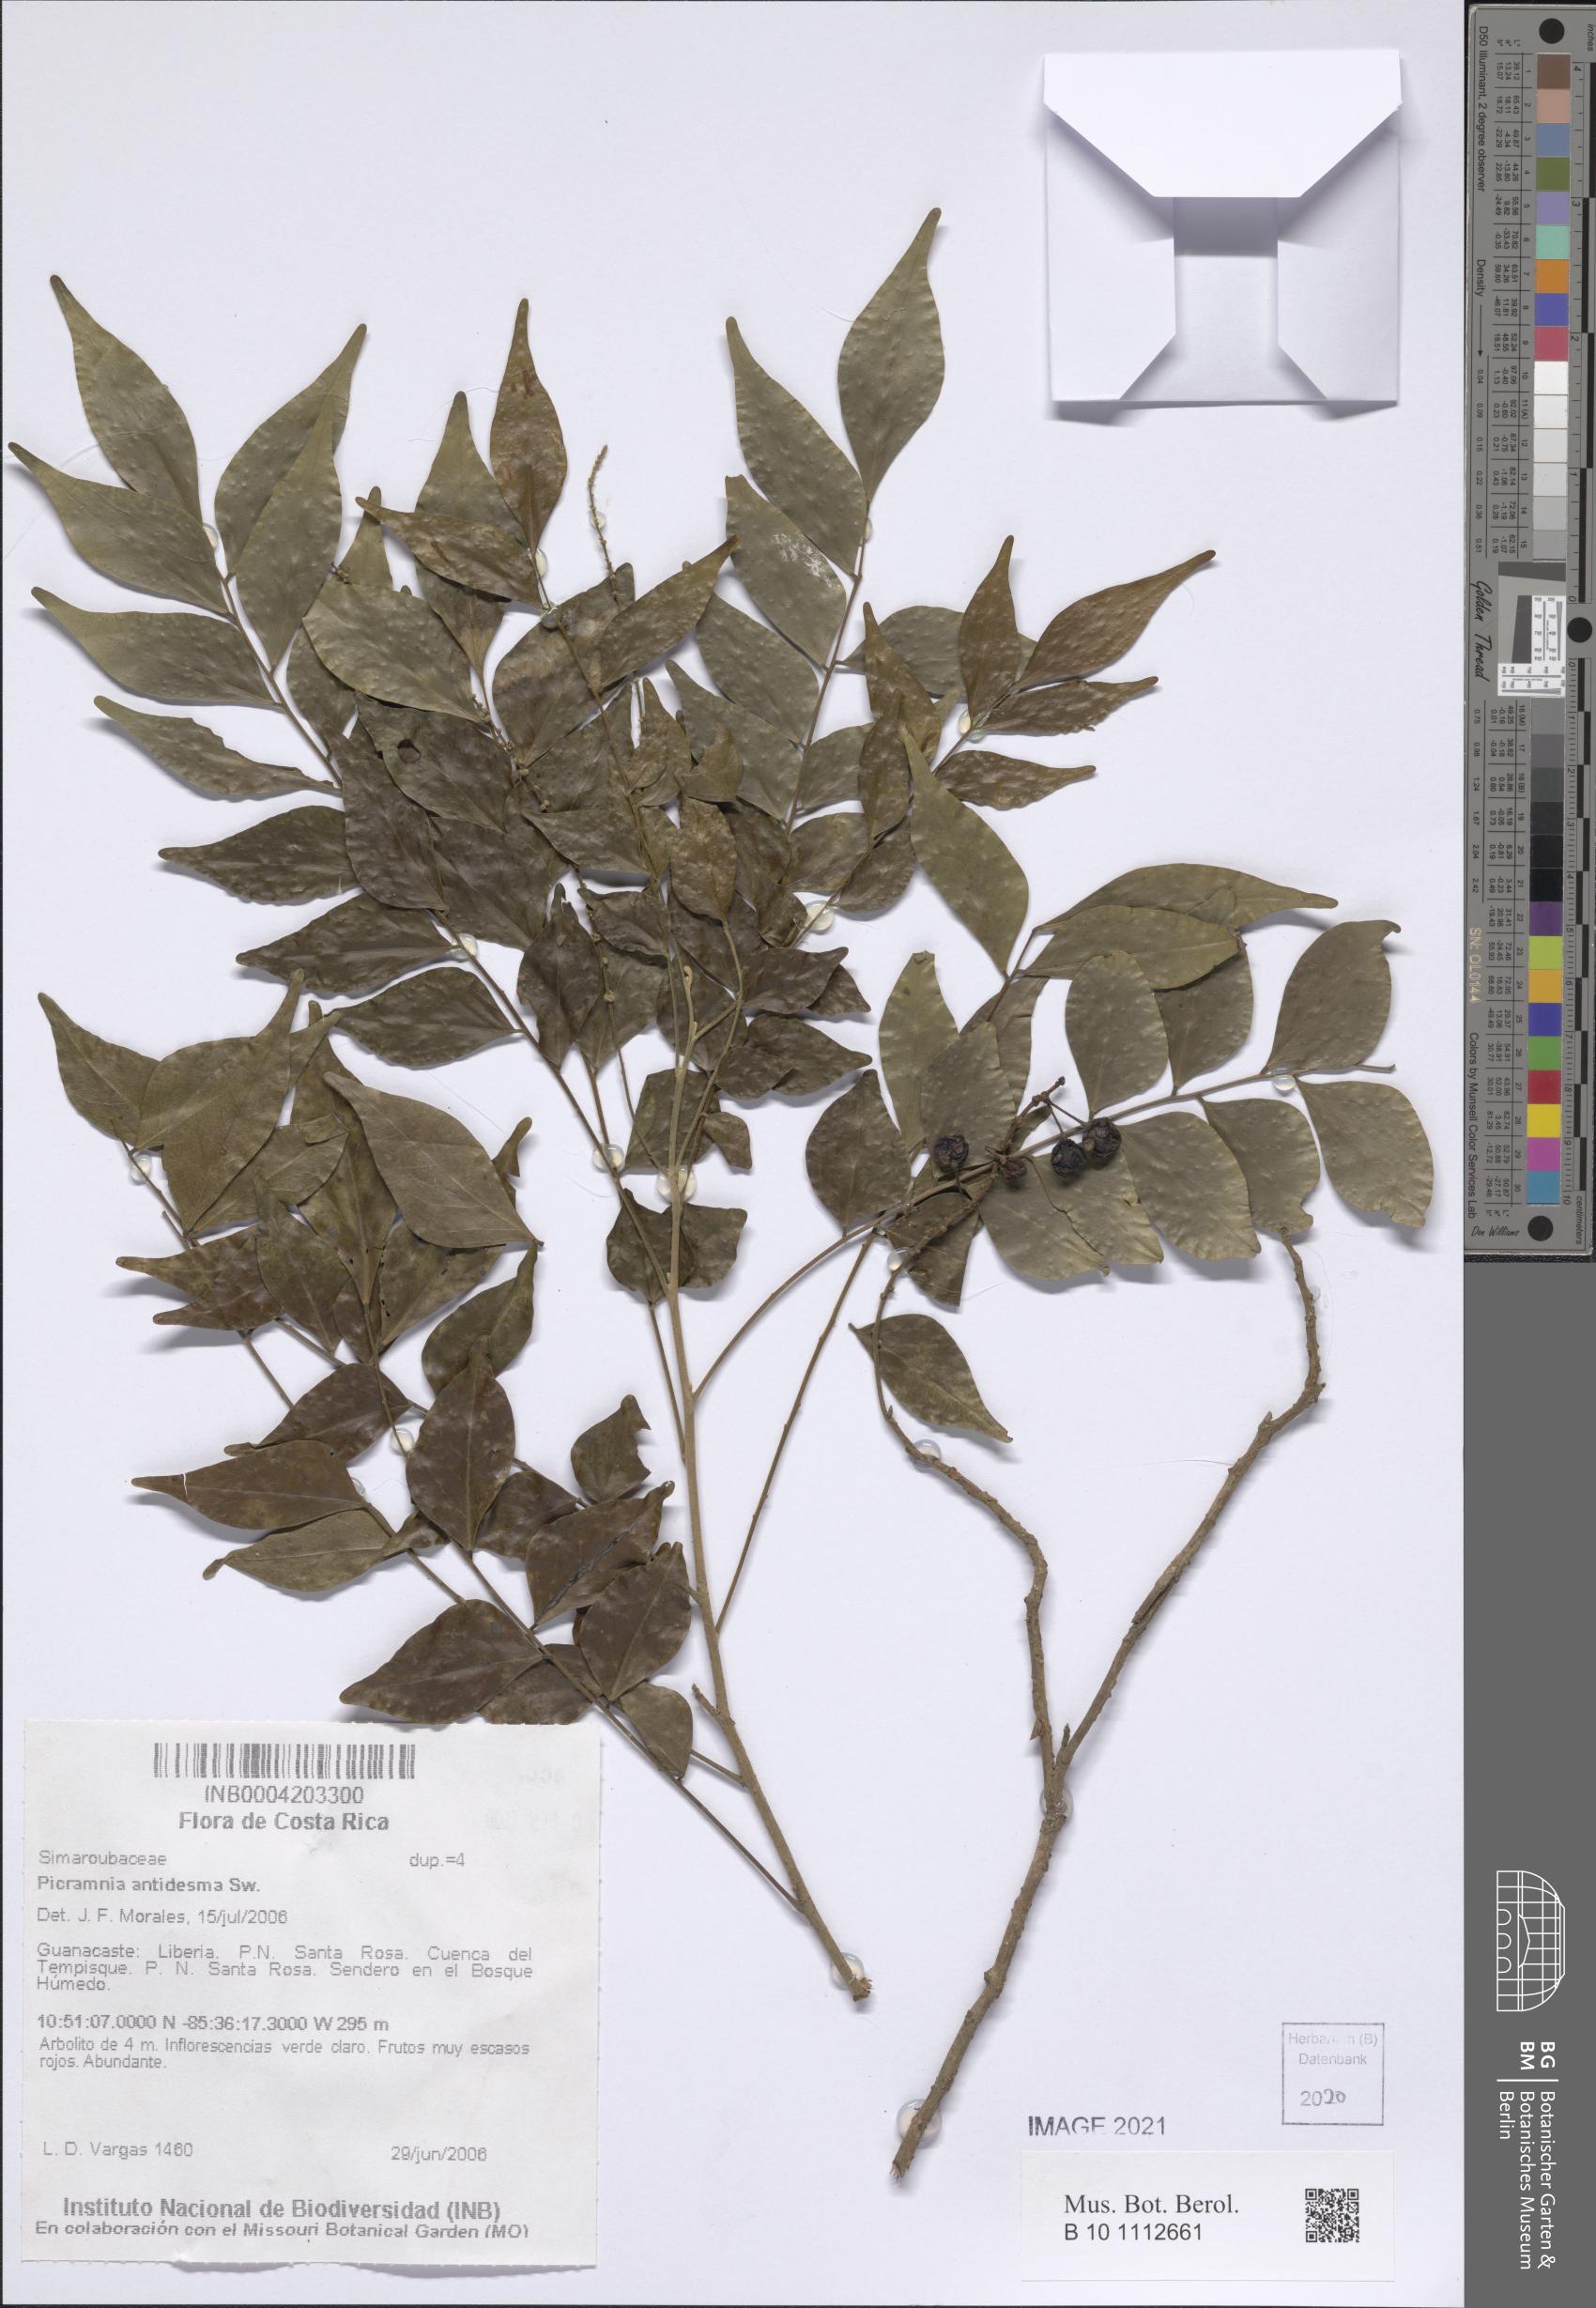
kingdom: Plantae
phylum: Tracheophyta
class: Magnoliopsida
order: Picramniales
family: Picramniaceae
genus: Picramnia
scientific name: Picramnia antidesma
